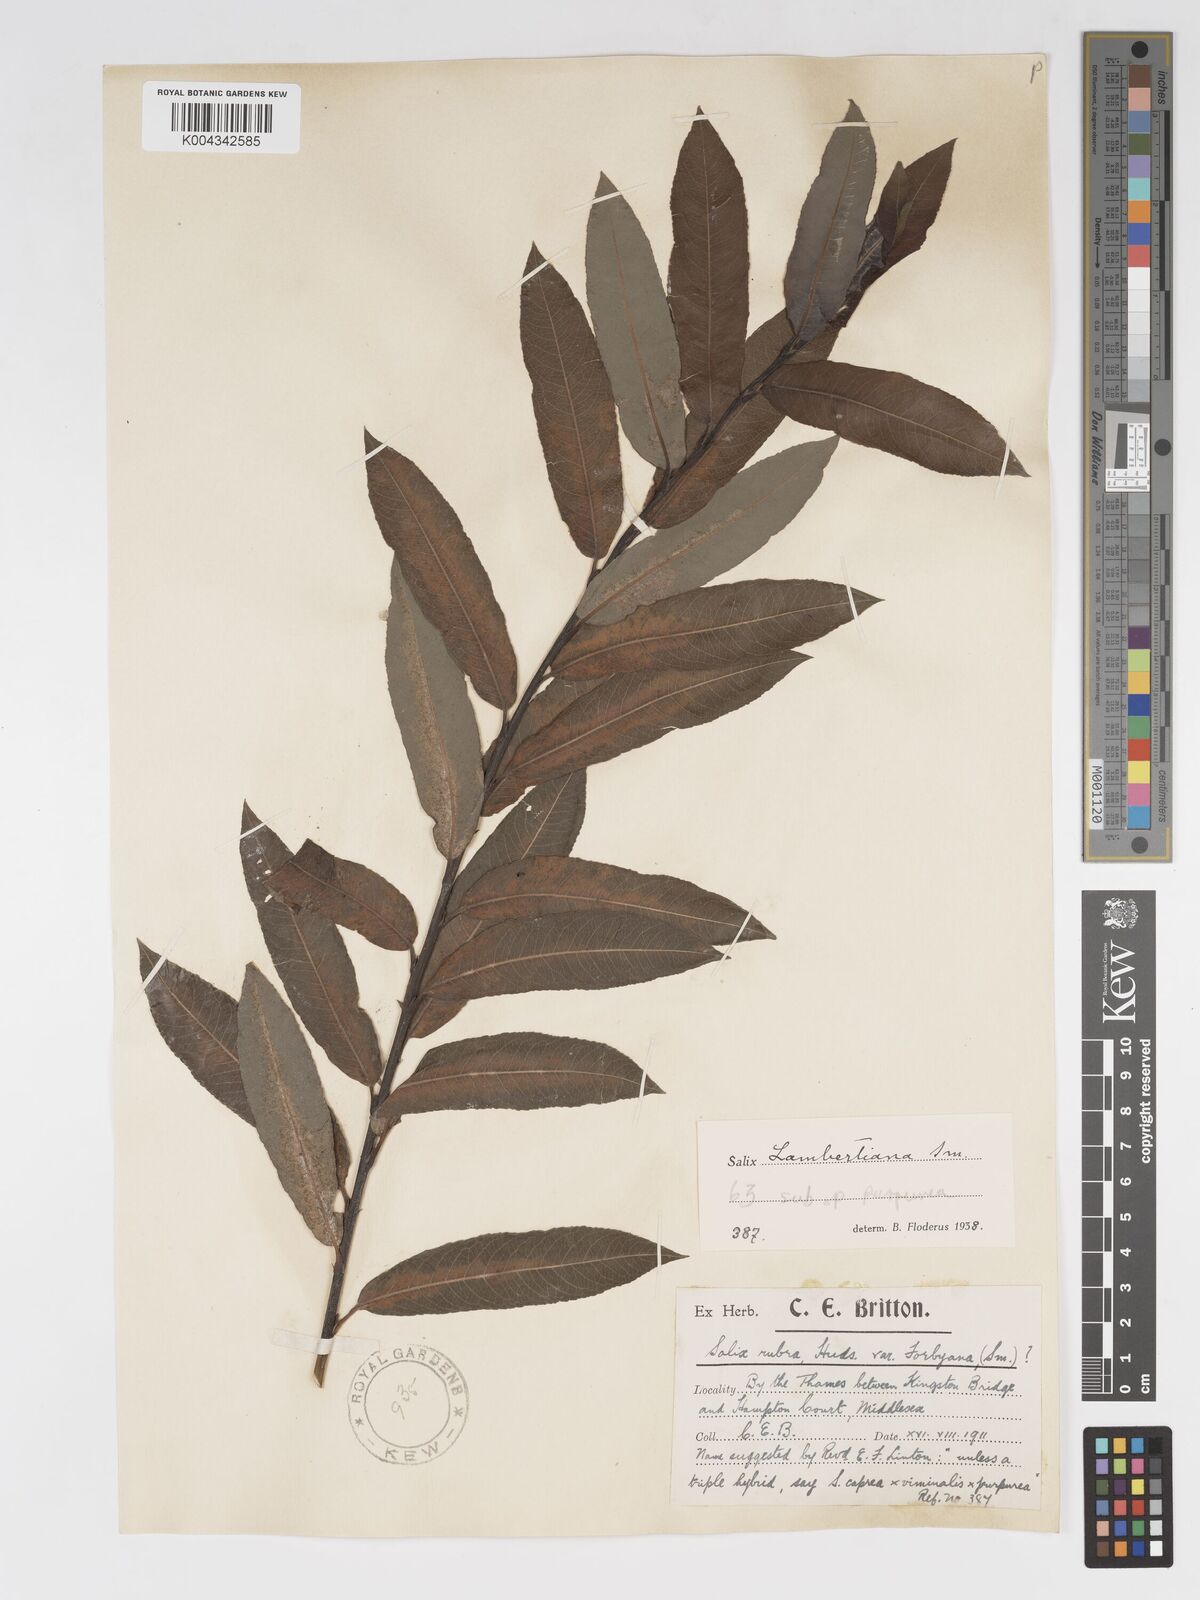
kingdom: Plantae
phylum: Tracheophyta
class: Magnoliopsida
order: Malpighiales
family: Salicaceae
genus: Salix
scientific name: Salix cinerea
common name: Common sallow
